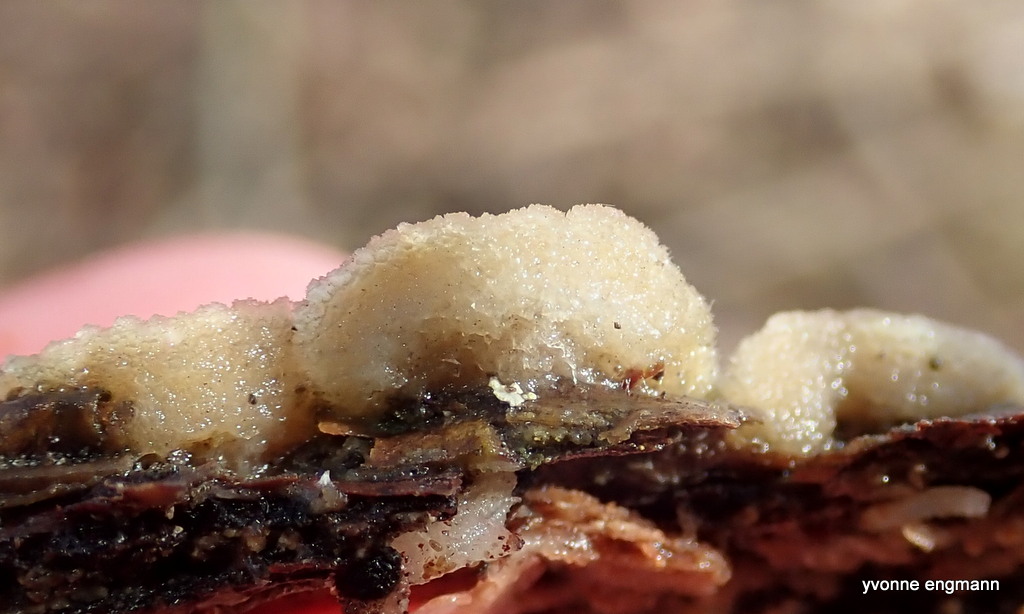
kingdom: Fungi
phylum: Basidiomycota
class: Agaricomycetes
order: Hymenochaetales
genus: Trichaptum
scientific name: Trichaptum abietinum
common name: almindelig violporesvamp
